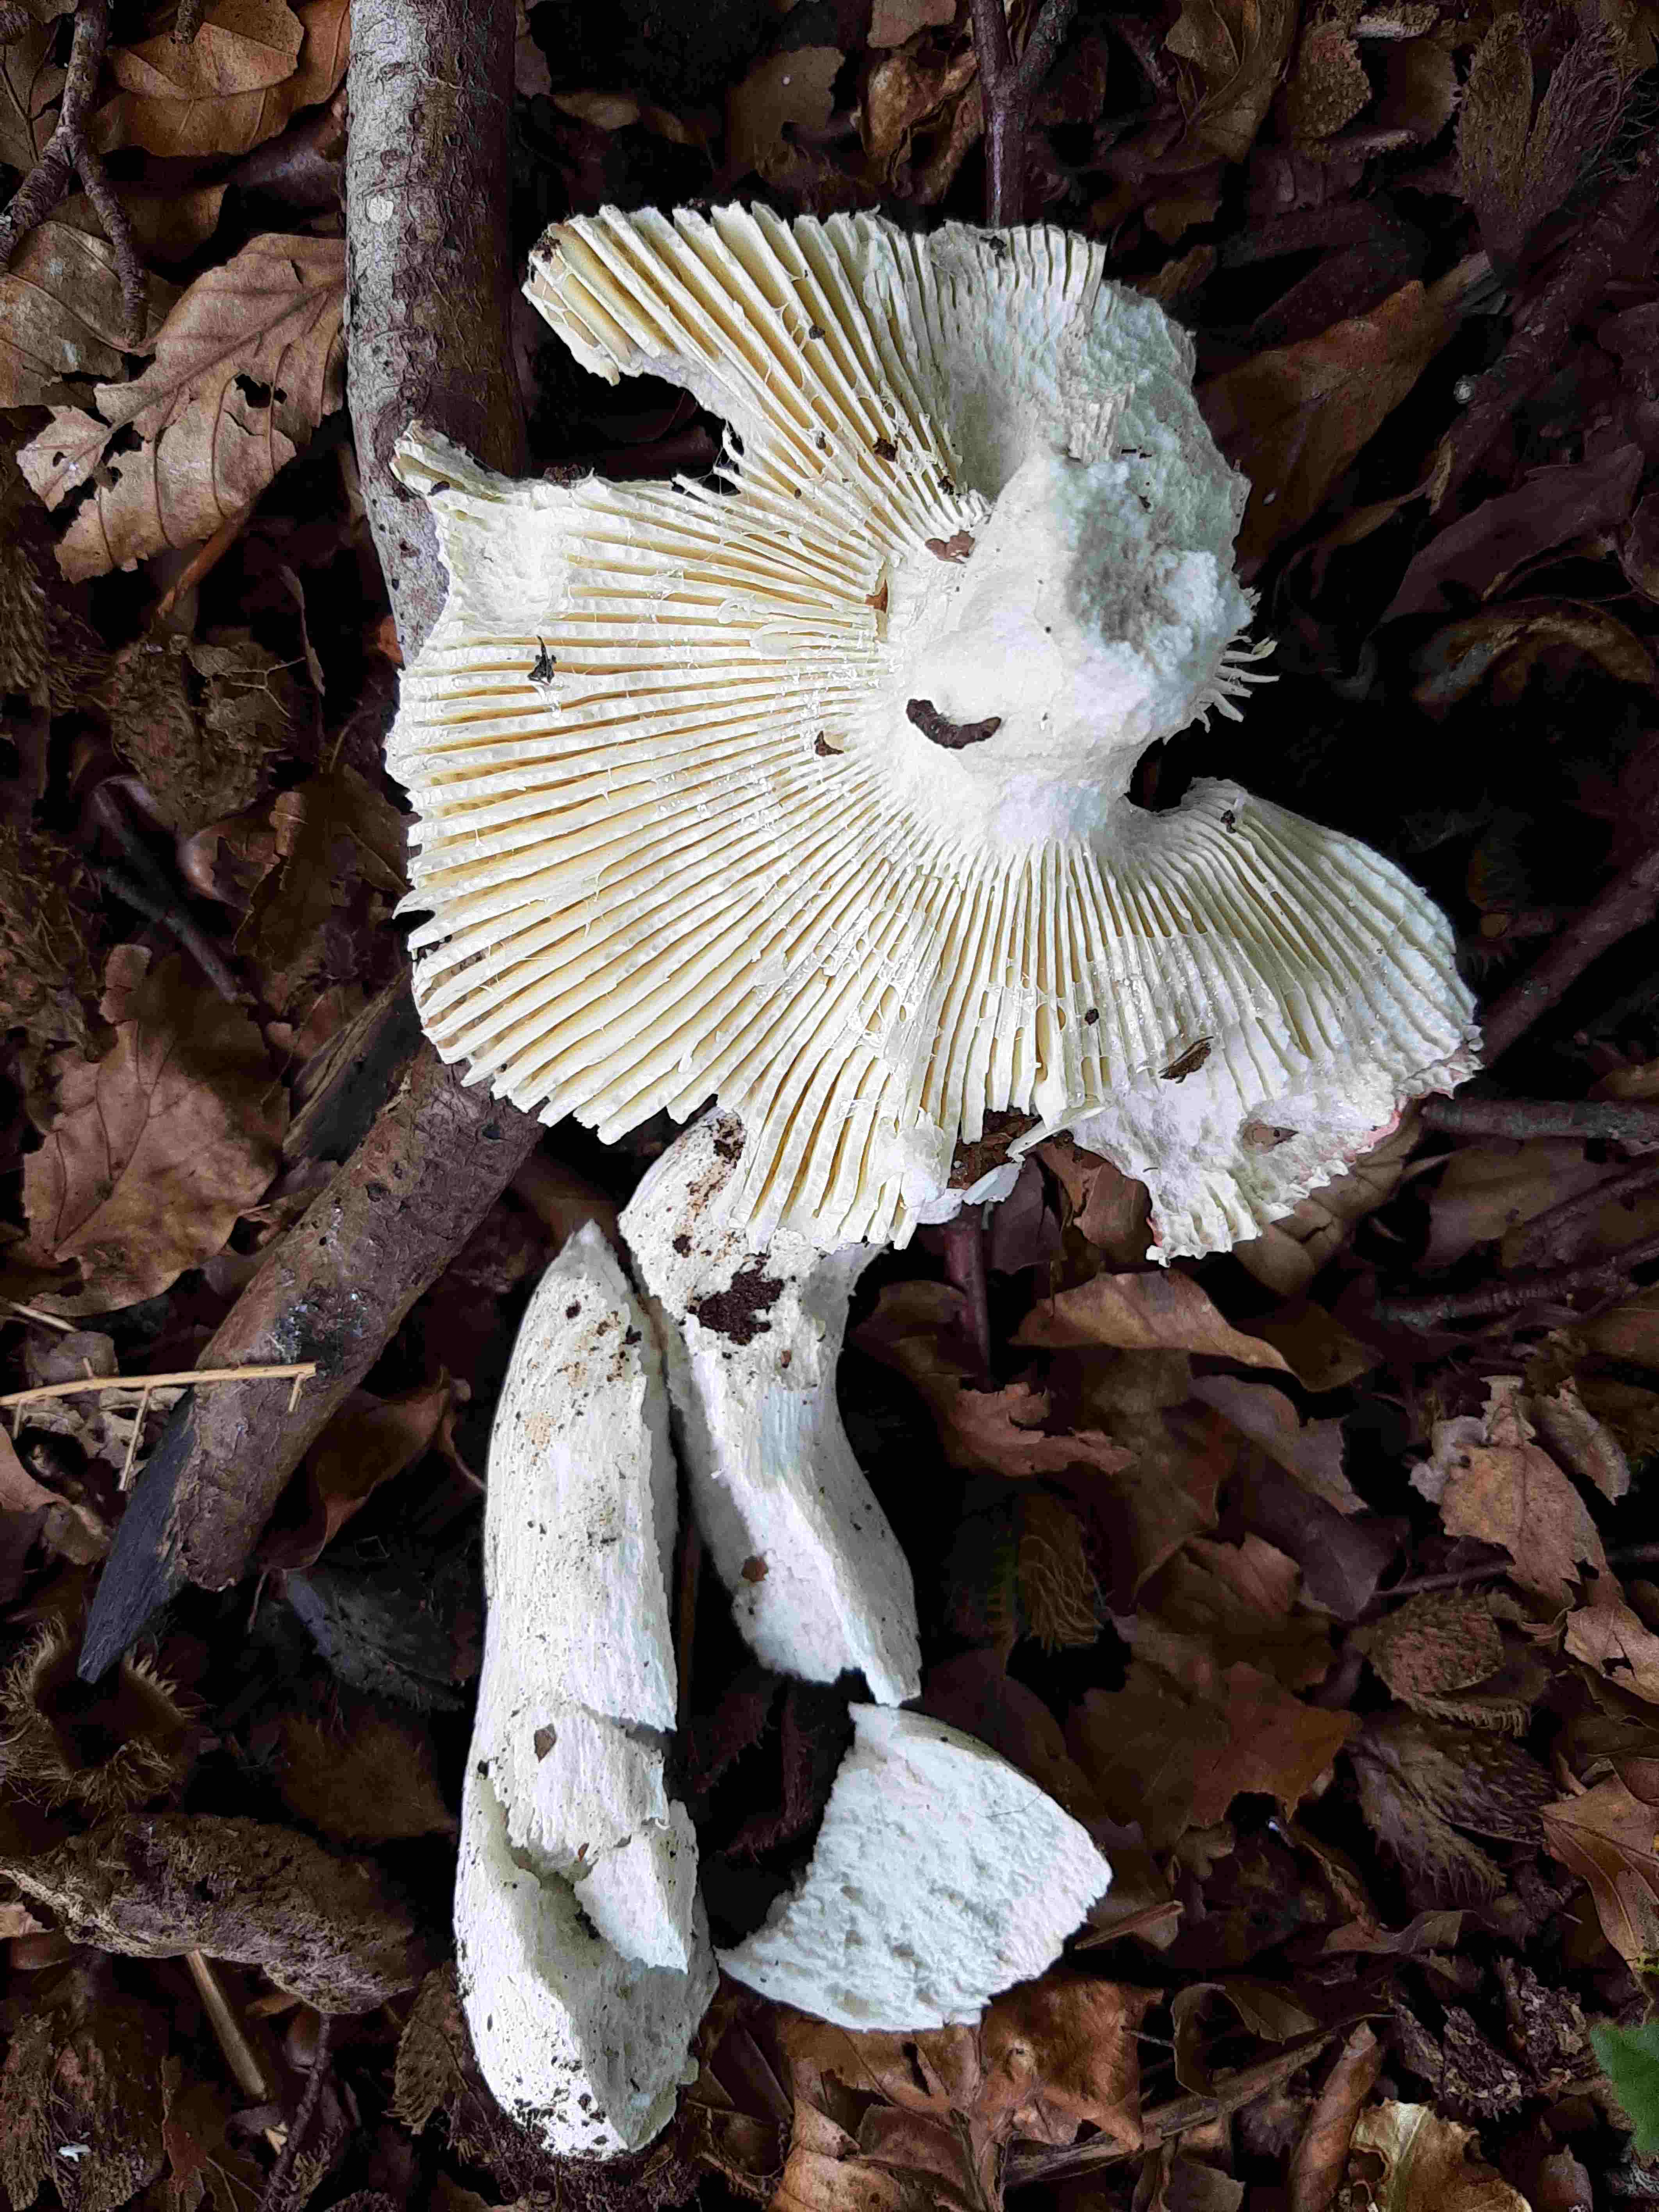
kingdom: Fungi
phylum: Basidiomycota
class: Agaricomycetes
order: Russulales
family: Russulaceae
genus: Russula
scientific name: Russula rosea
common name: fastkødet skørhat
